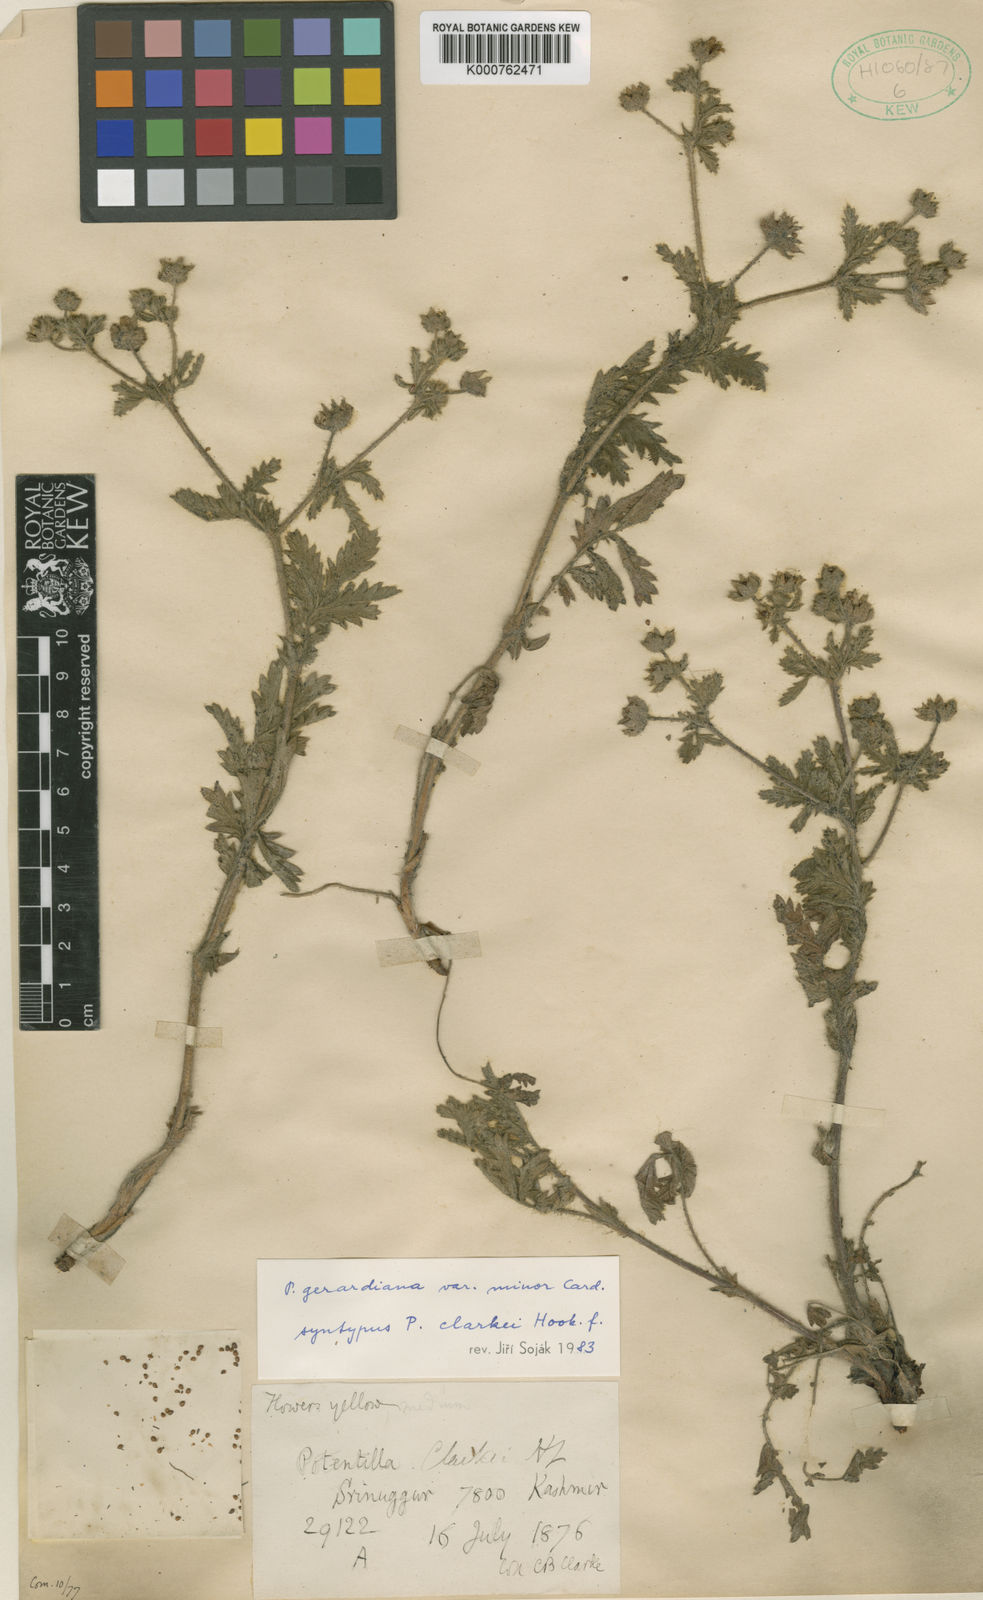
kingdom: Plantae
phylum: Tracheophyta
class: Magnoliopsida
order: Rosales
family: Rosaceae
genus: Potentilla
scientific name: Potentilla
